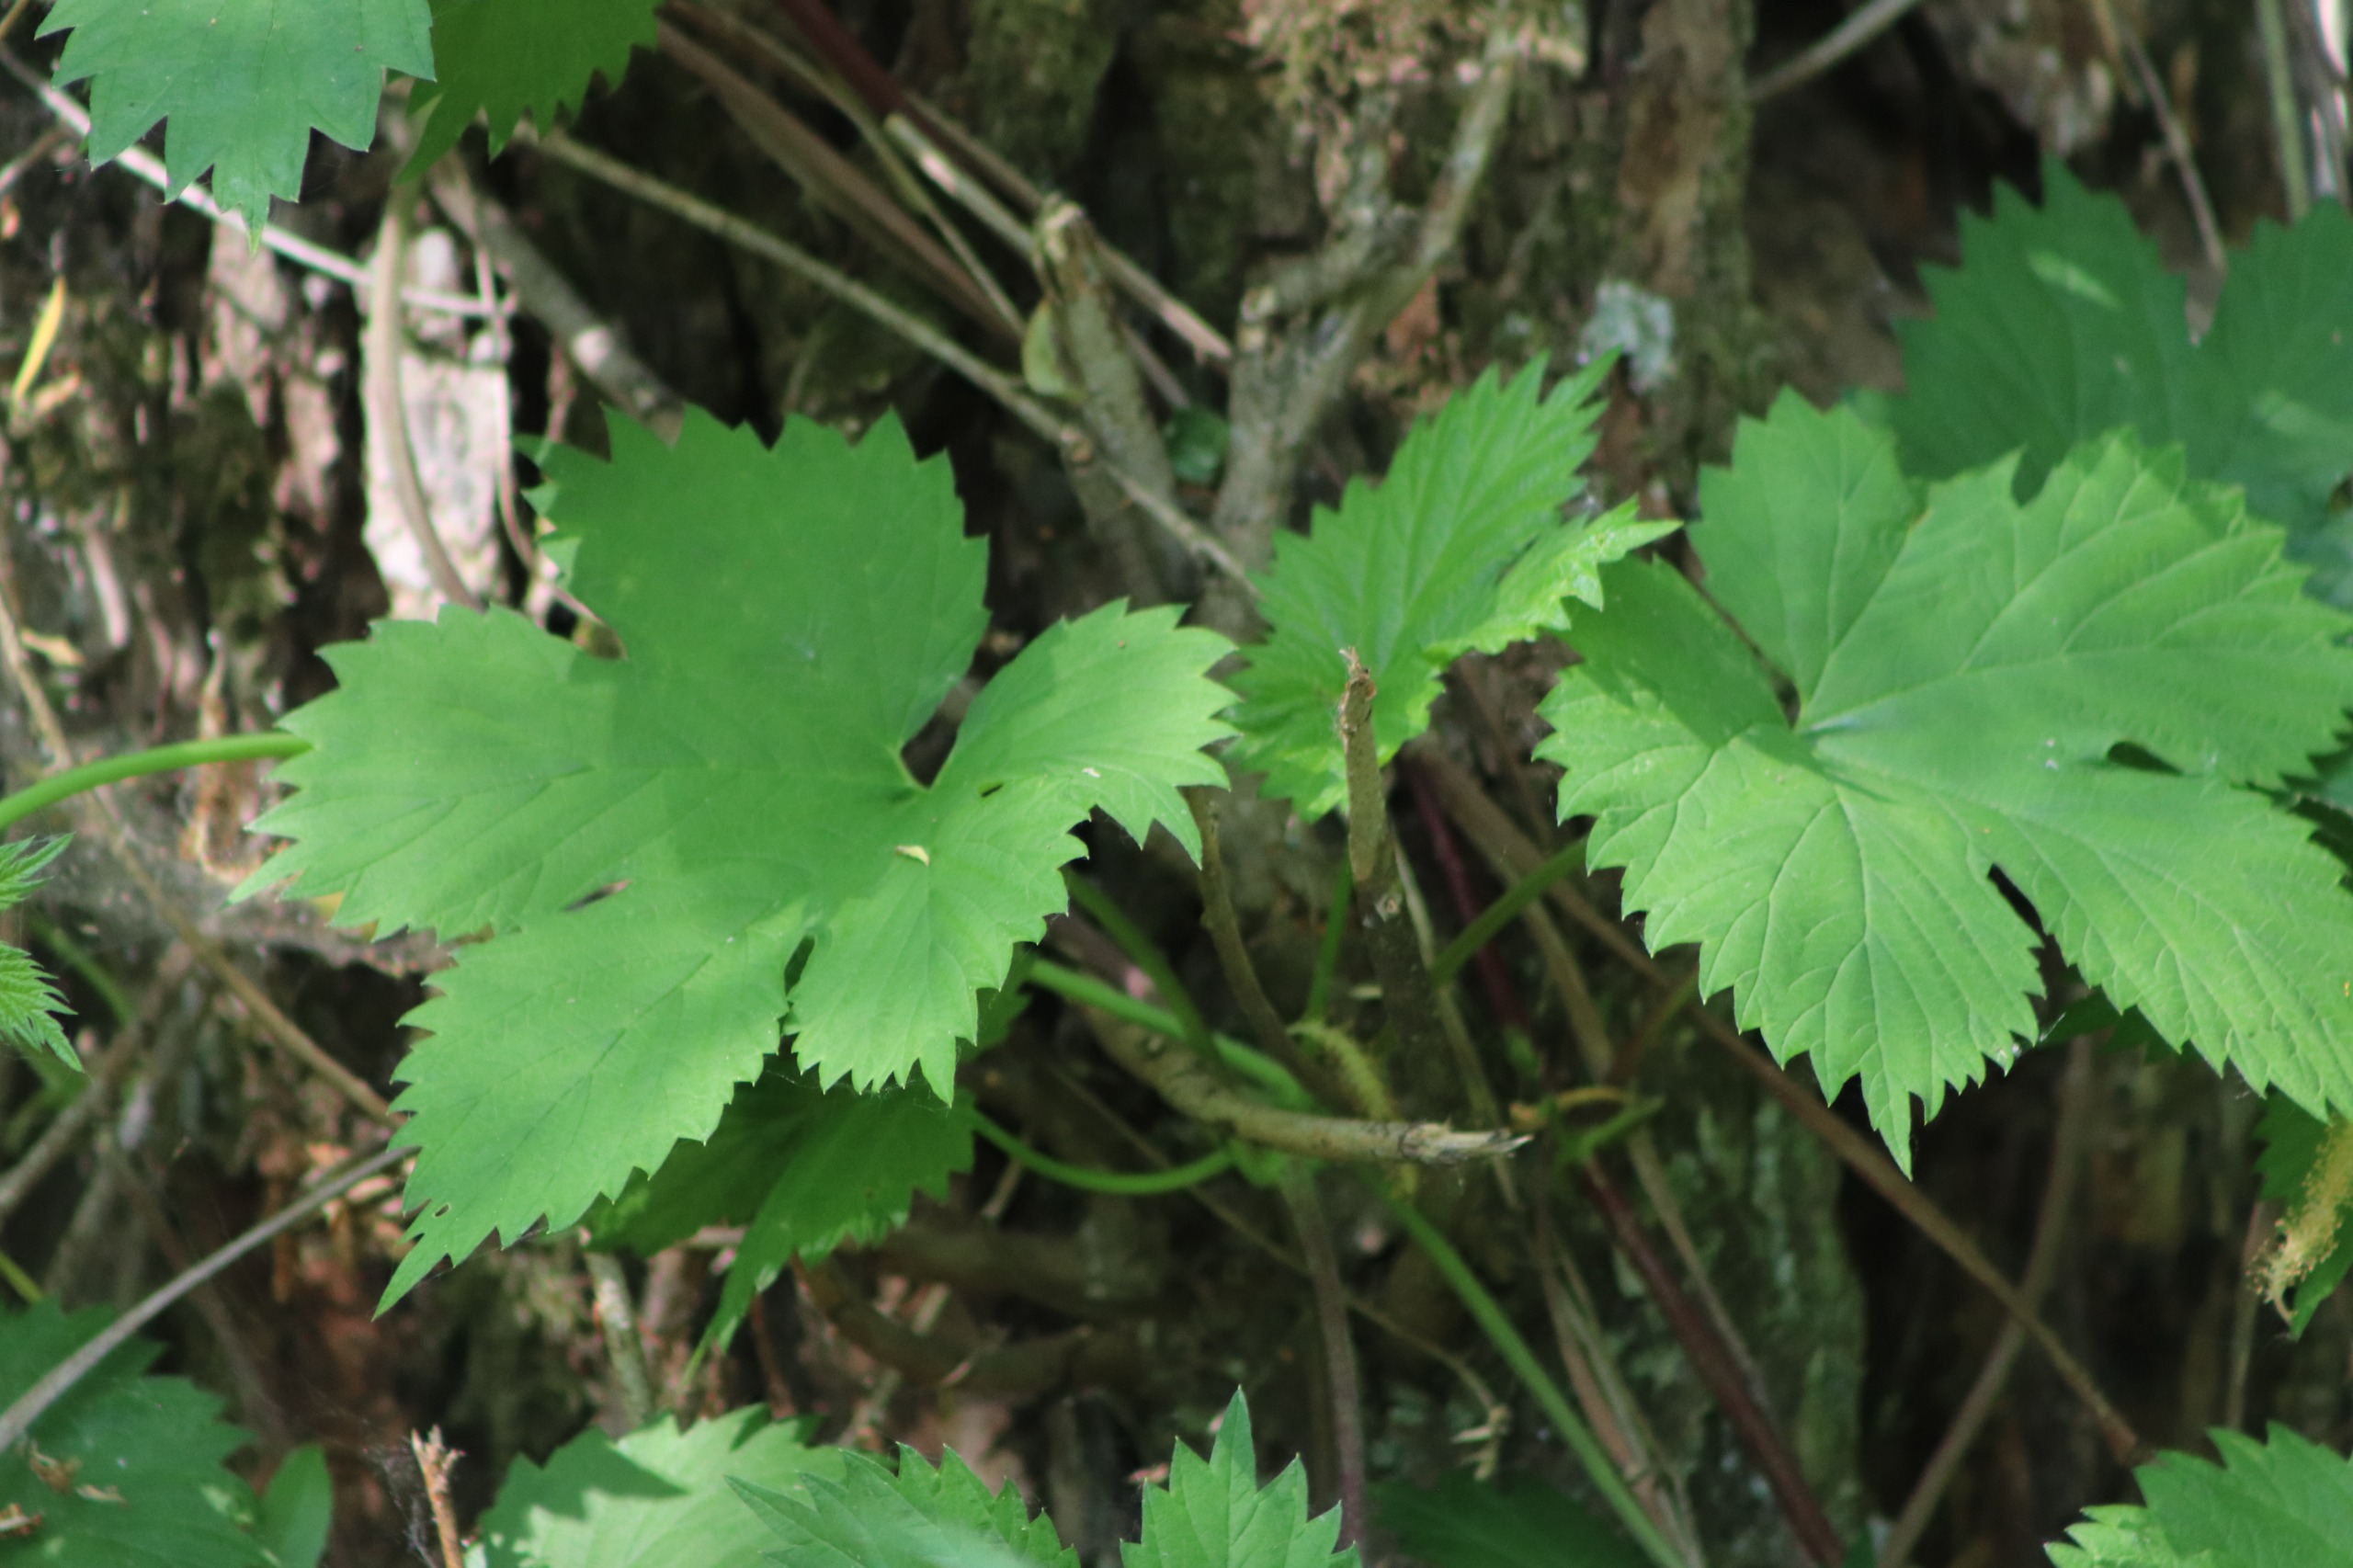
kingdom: Plantae
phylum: Tracheophyta
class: Magnoliopsida
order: Rosales
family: Cannabaceae
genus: Humulus
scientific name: Humulus lupulus
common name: Humle
